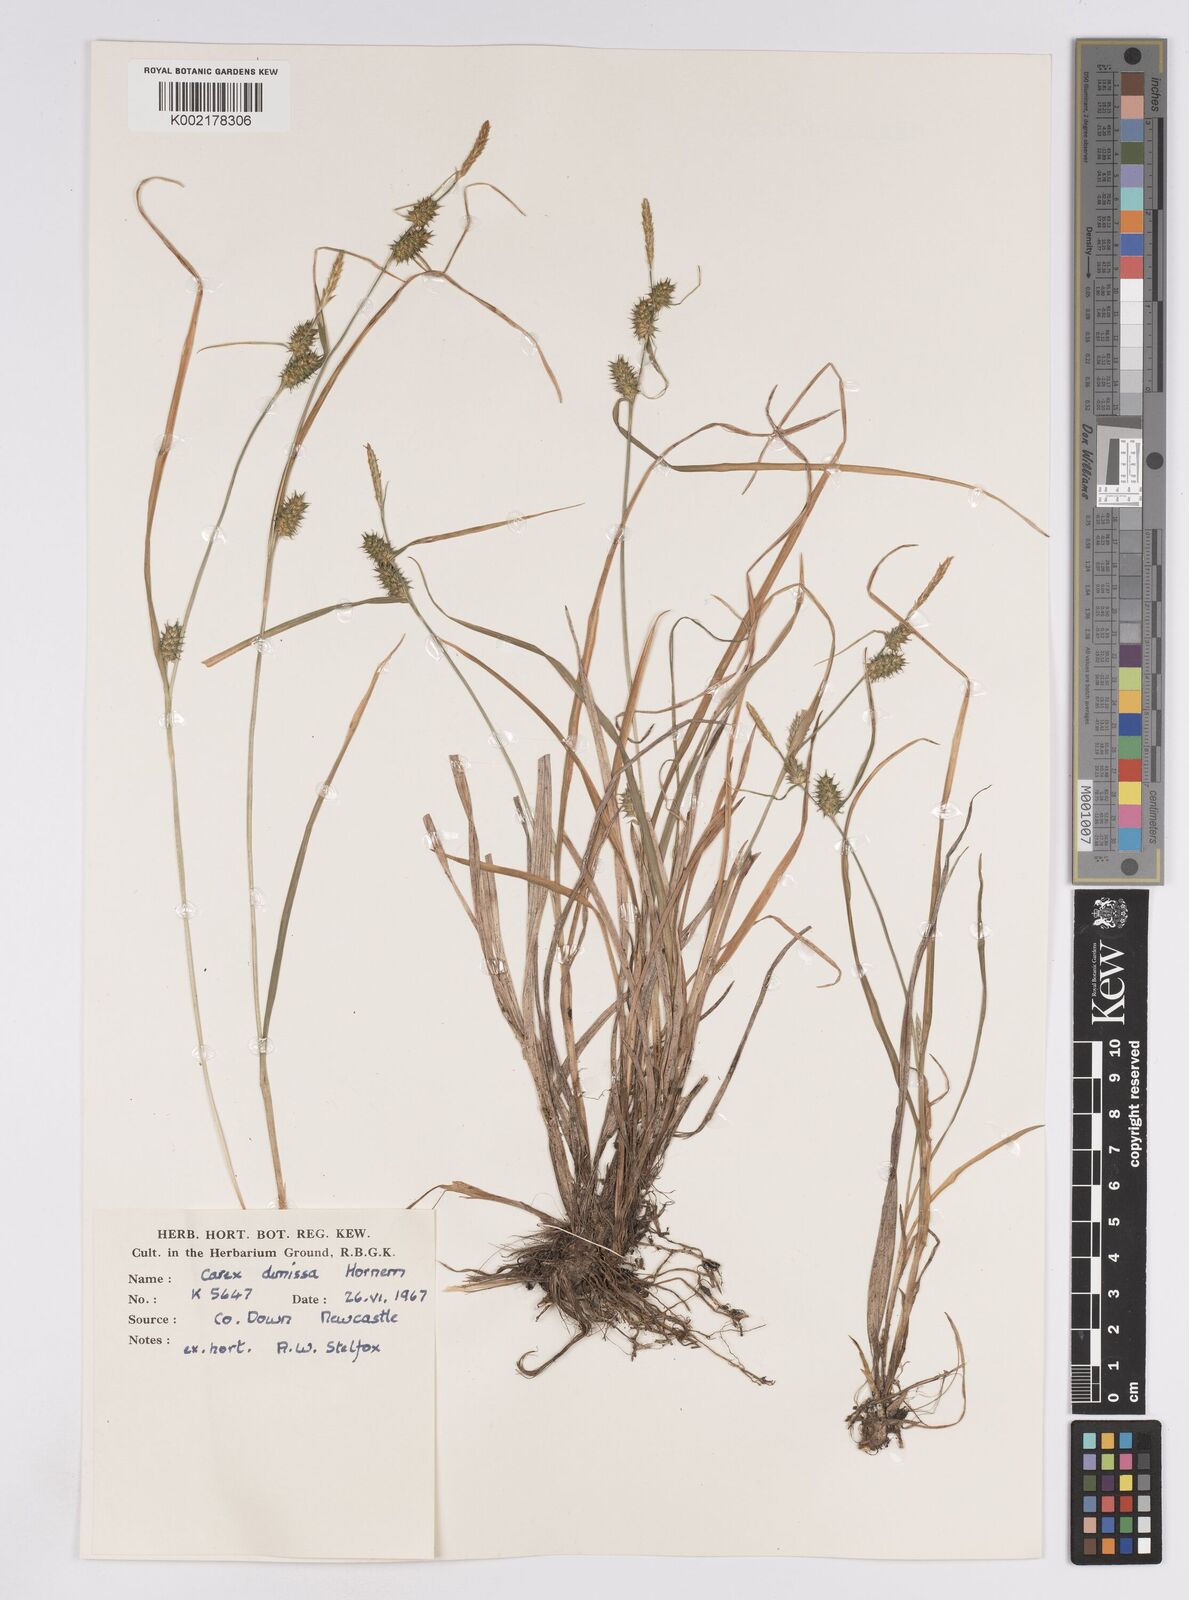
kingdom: Plantae
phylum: Tracheophyta
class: Liliopsida
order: Poales
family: Cyperaceae
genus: Carex
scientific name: Carex demissa
